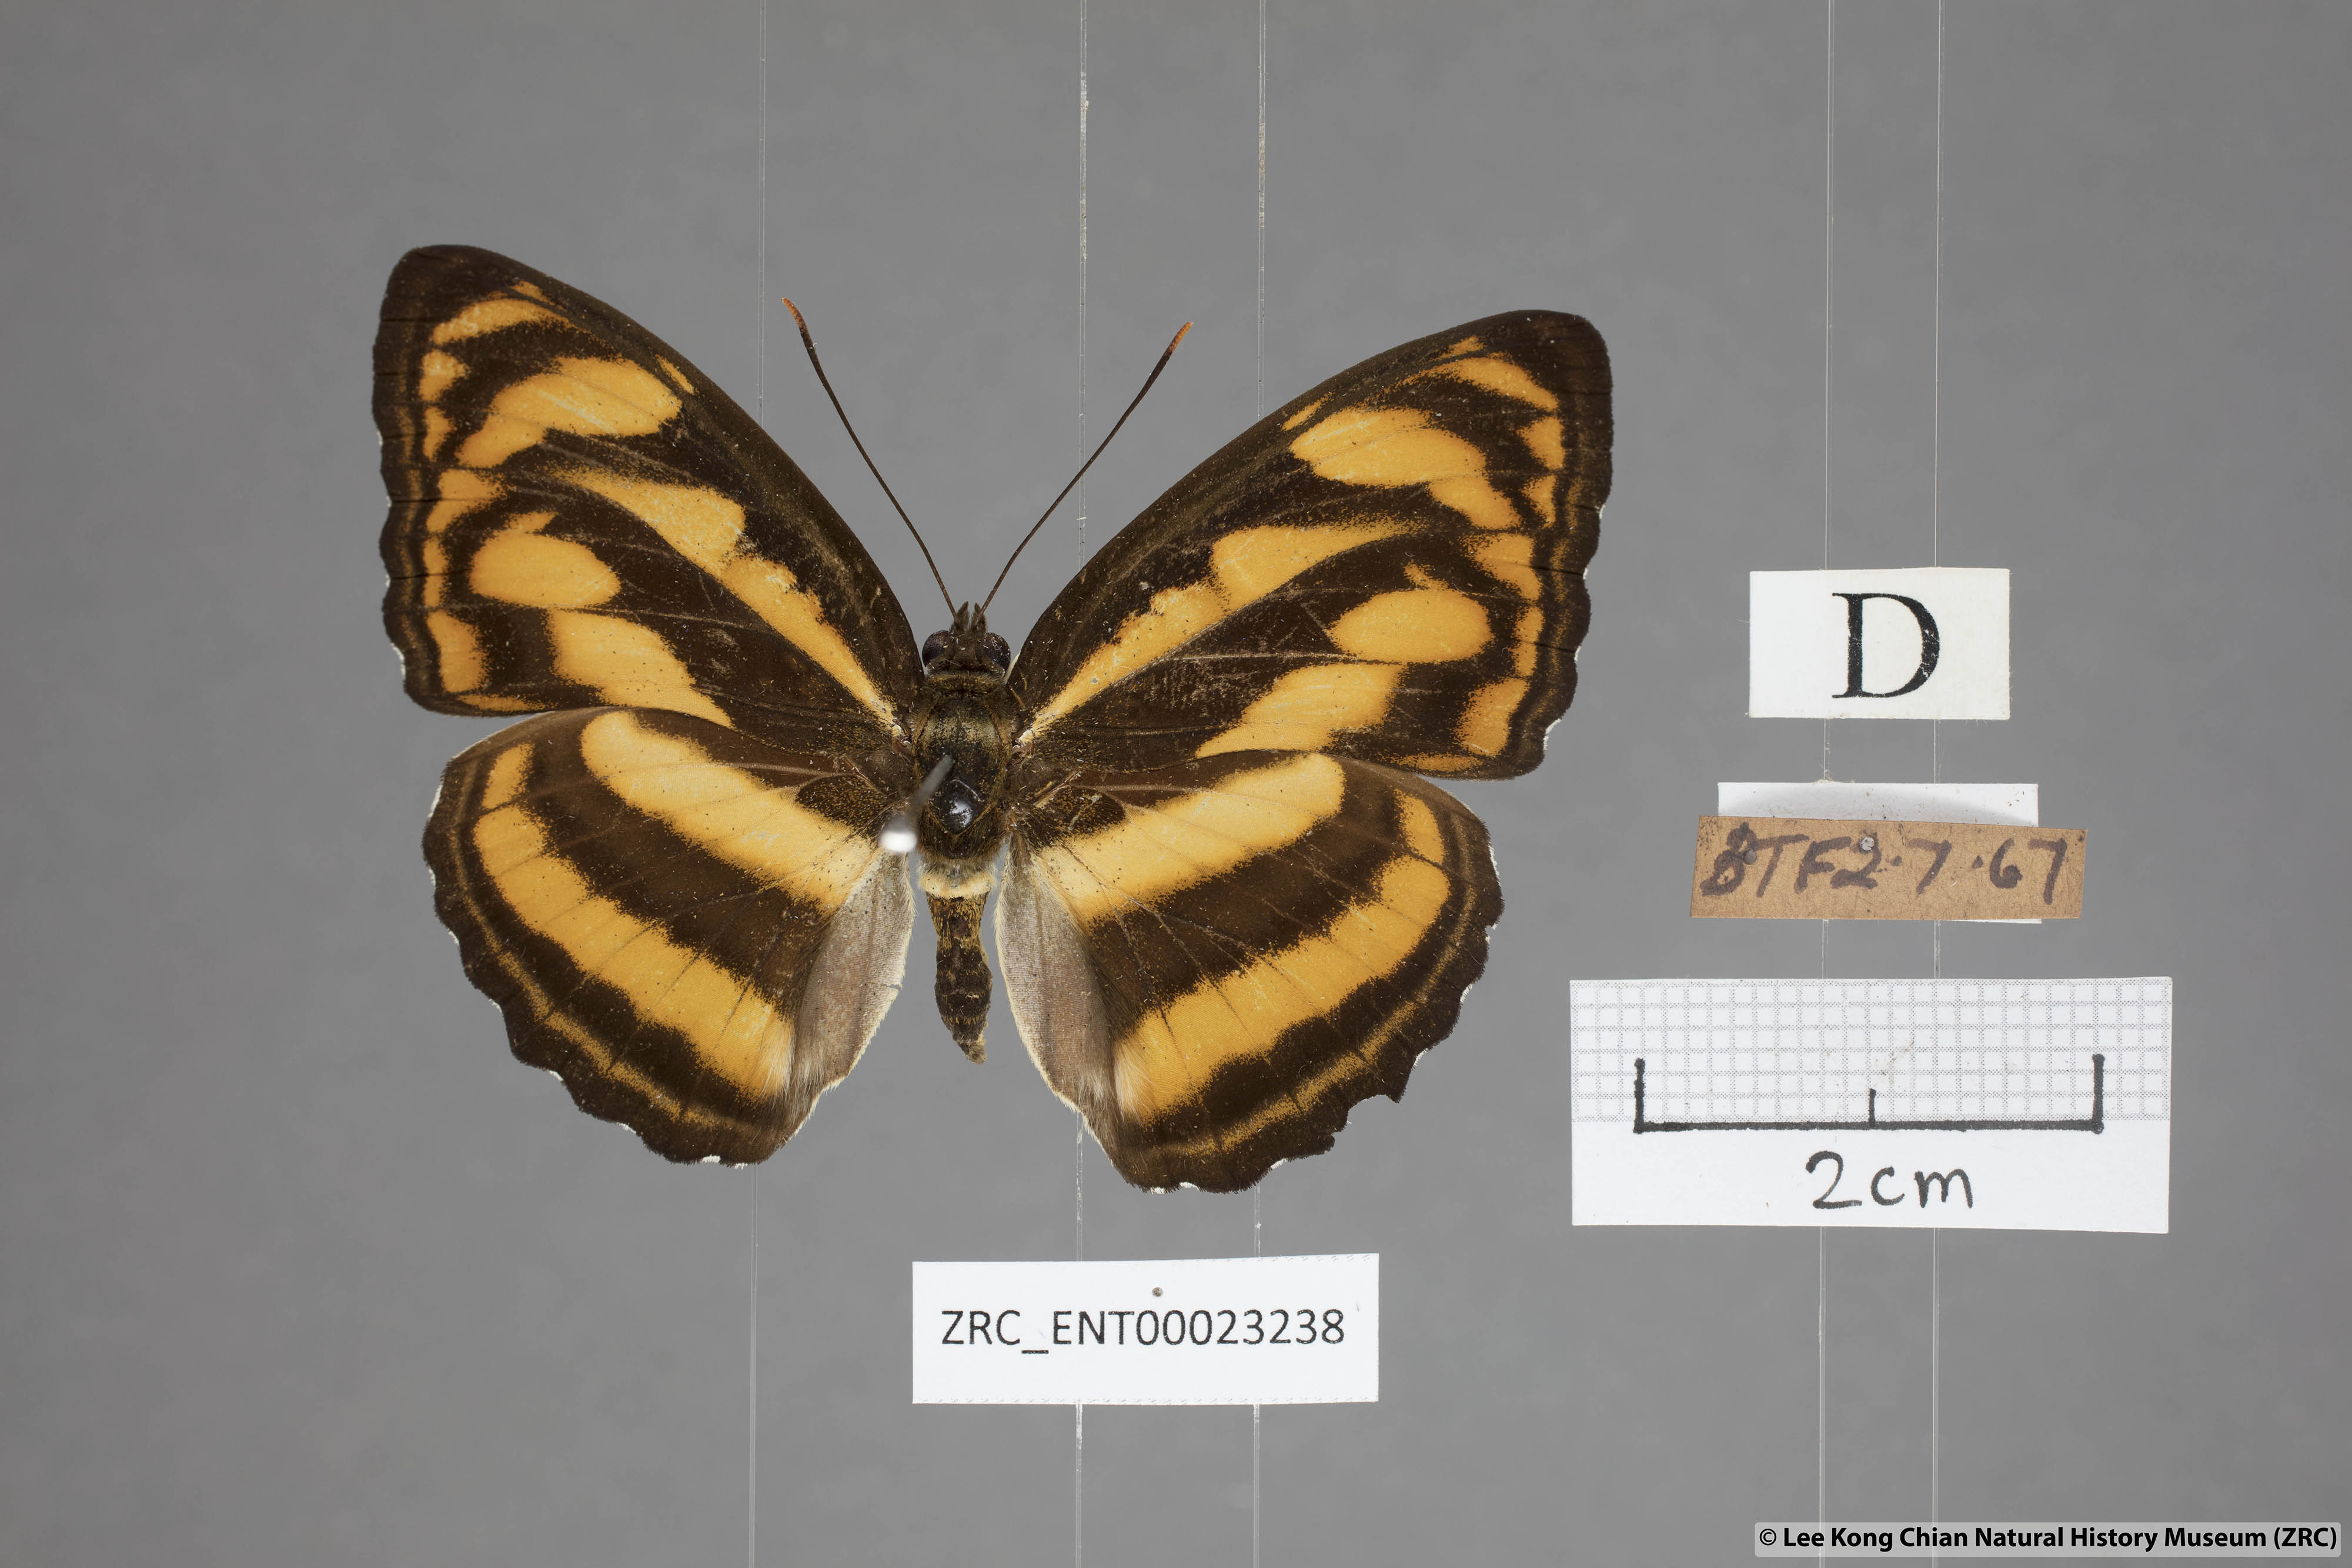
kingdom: Animalia
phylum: Arthropoda
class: Insecta
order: Lepidoptera
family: Nymphalidae
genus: Parathyma
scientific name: Parathyma nefte
